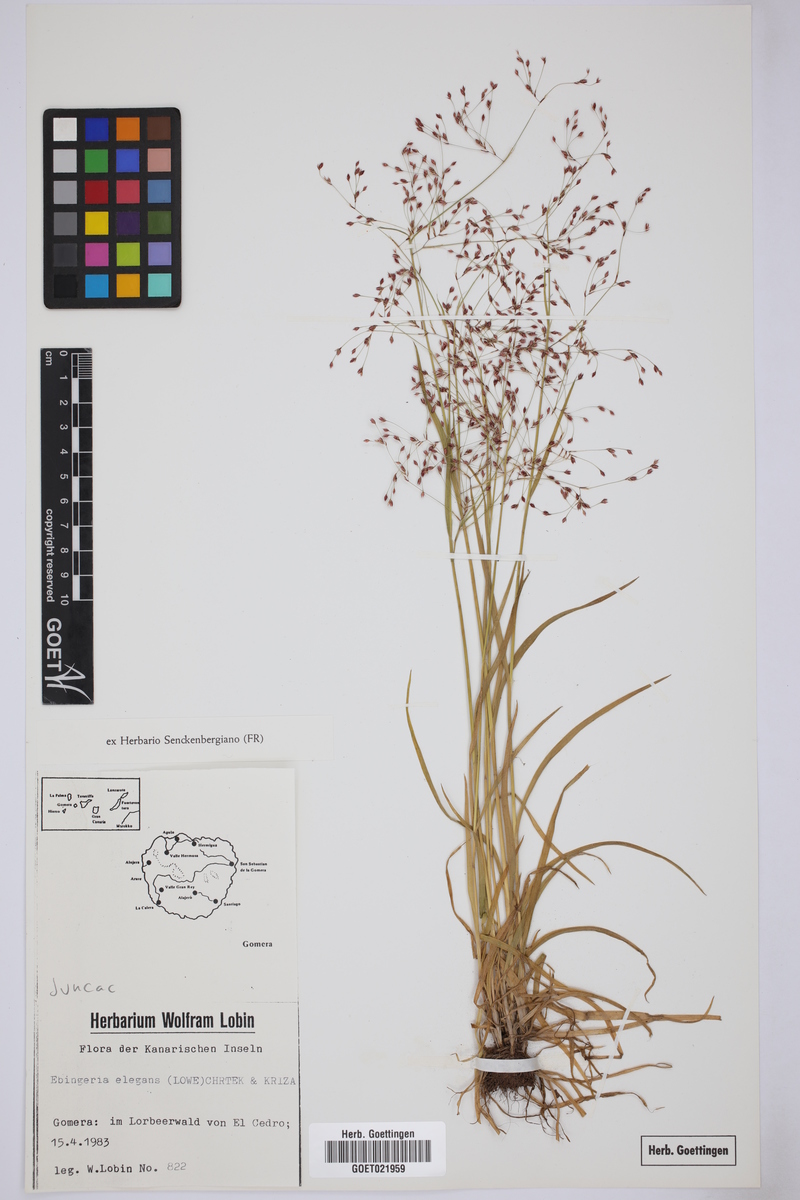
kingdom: Plantae
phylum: Tracheophyta
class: Liliopsida
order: Poales
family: Juncaceae
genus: Luzula
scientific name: Luzula elegans
